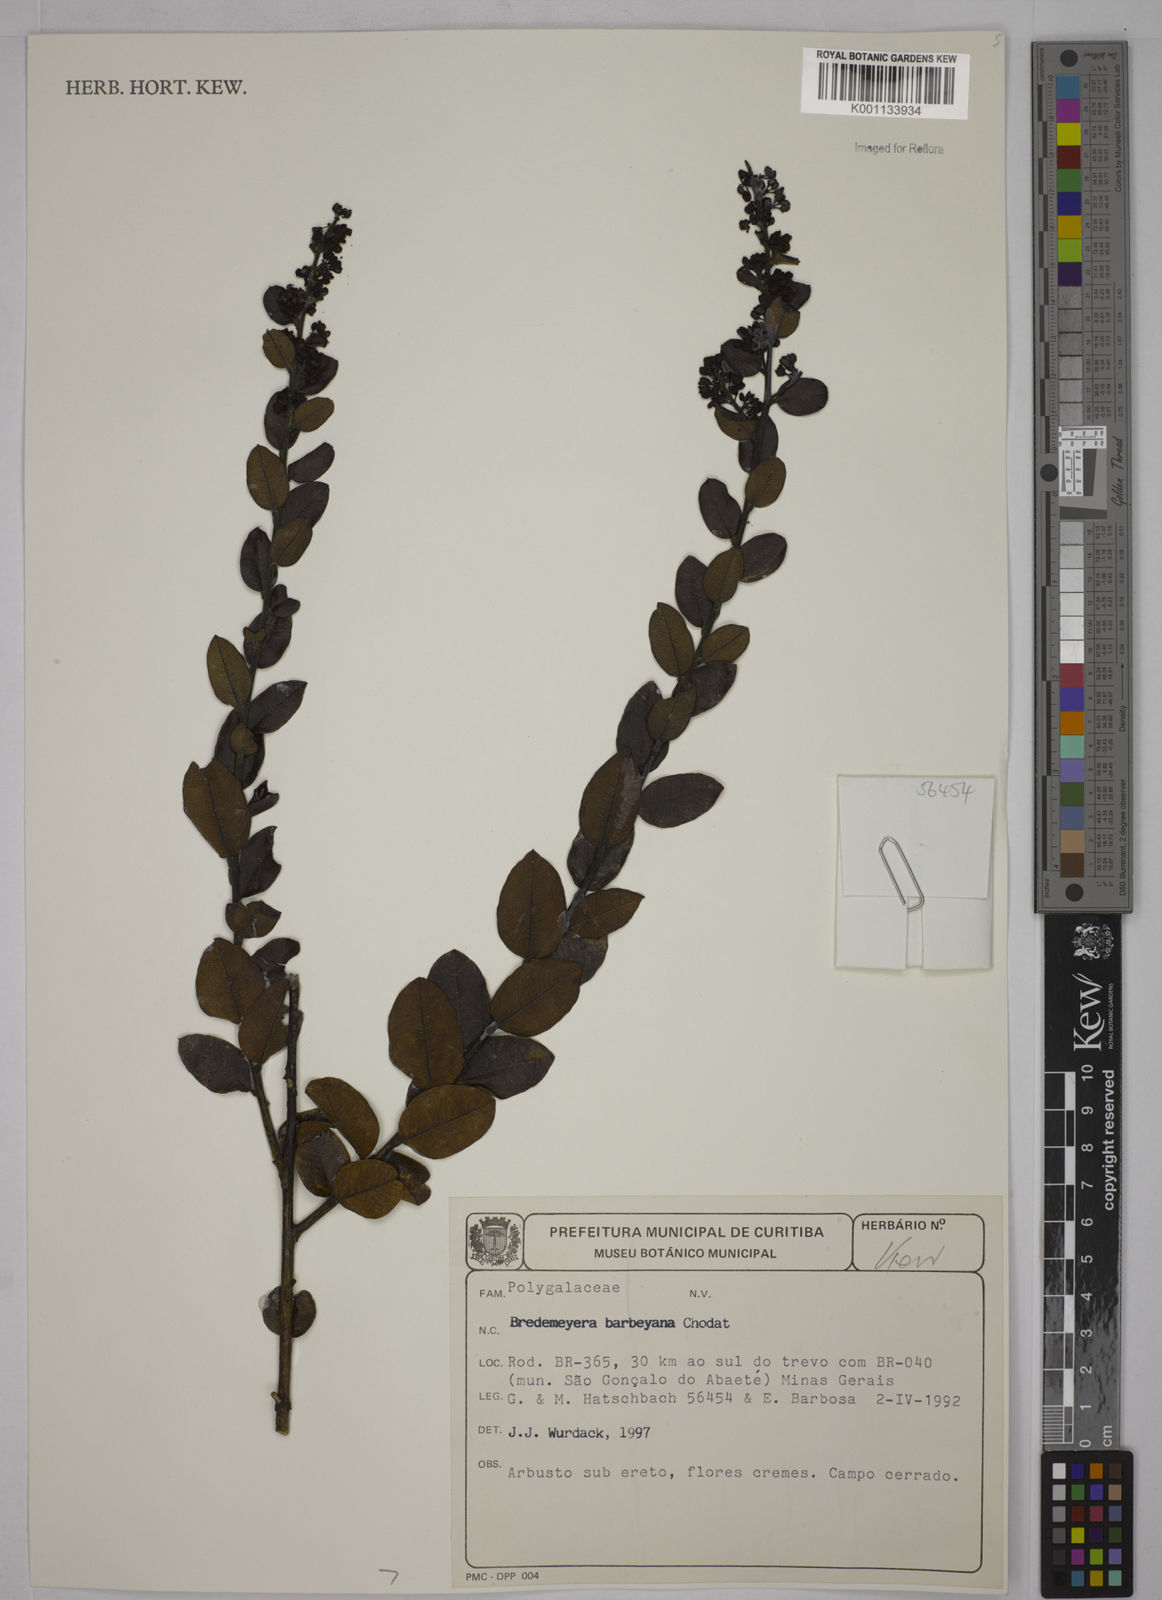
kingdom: Plantae
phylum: Tracheophyta
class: Magnoliopsida
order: Fabales
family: Polygalaceae
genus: Bredemeyera
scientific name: Bredemeyera barbeyana
